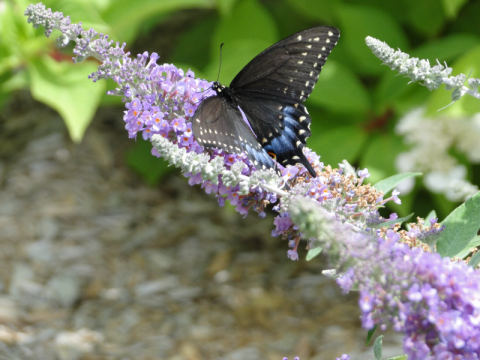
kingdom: Animalia
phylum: Arthropoda
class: Insecta
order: Lepidoptera
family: Papilionidae
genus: Papilio
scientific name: Papilio polyxenes
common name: Black Swallowtail
